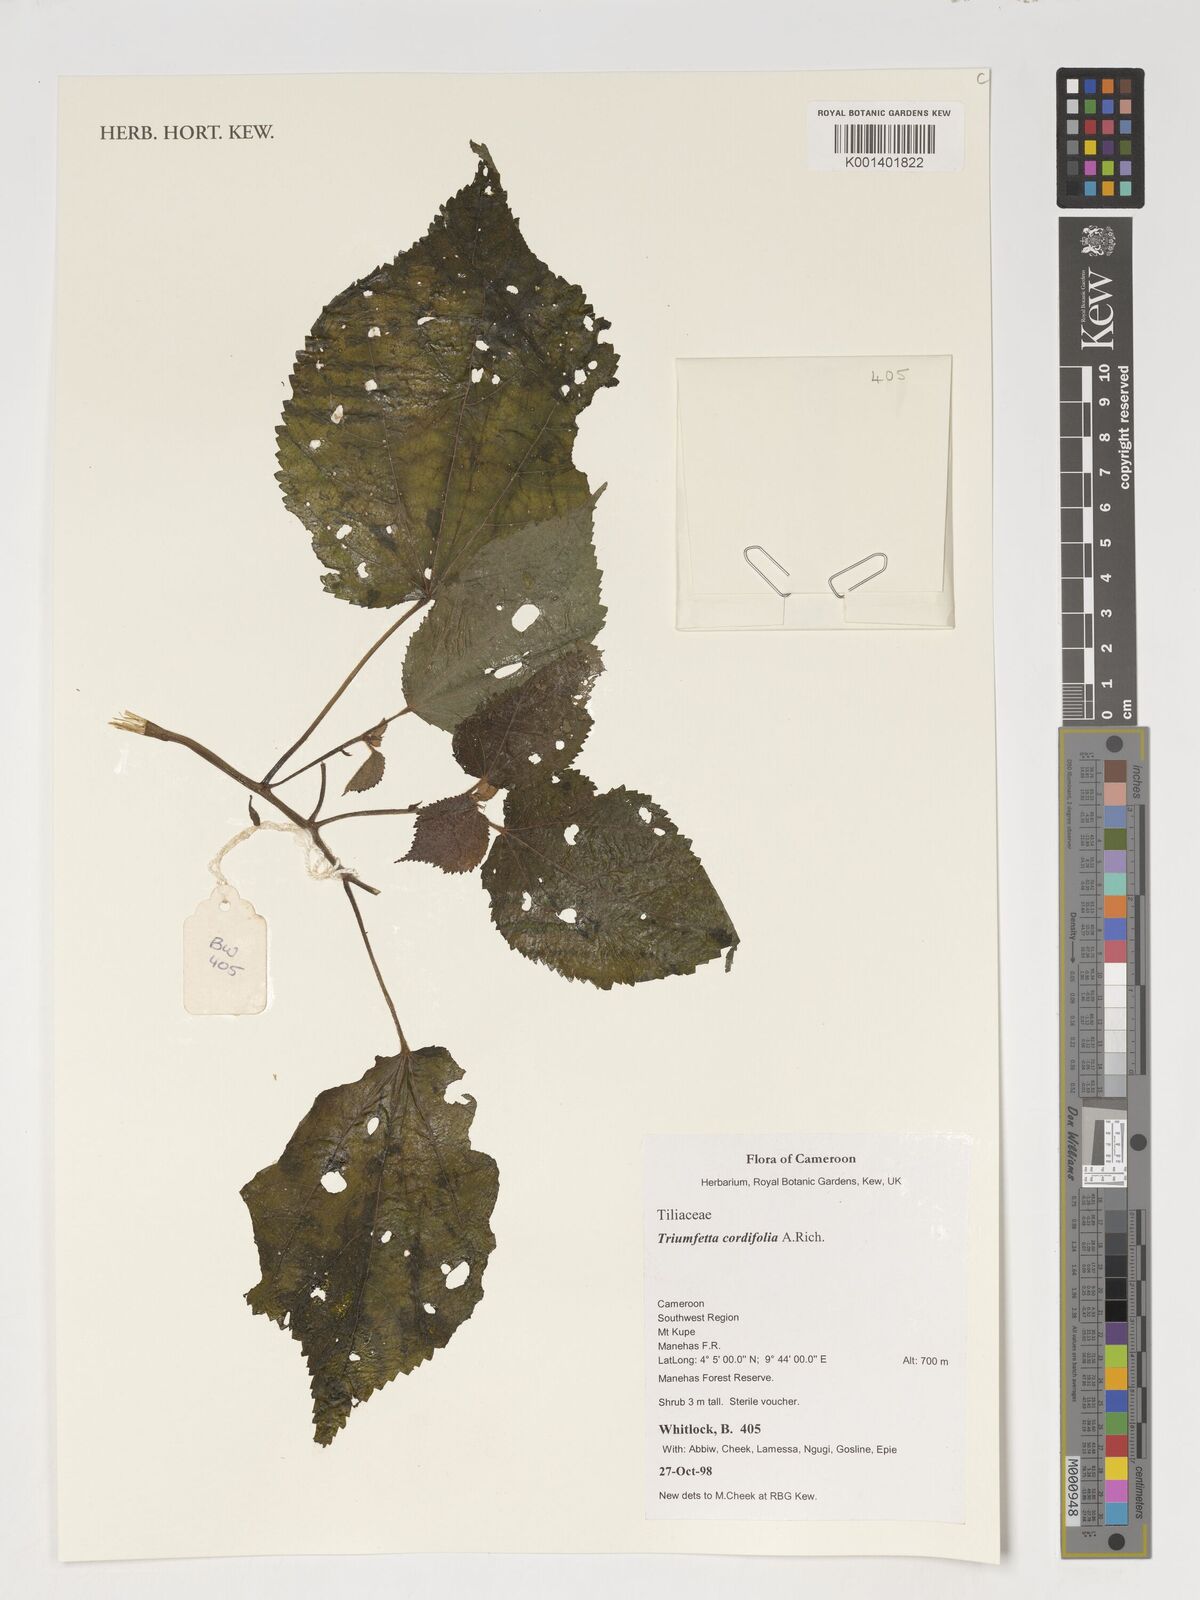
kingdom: Plantae
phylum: Tracheophyta
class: Magnoliopsida
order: Malvales
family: Malvaceae
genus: Triumfetta
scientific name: Triumfetta cordifolia
